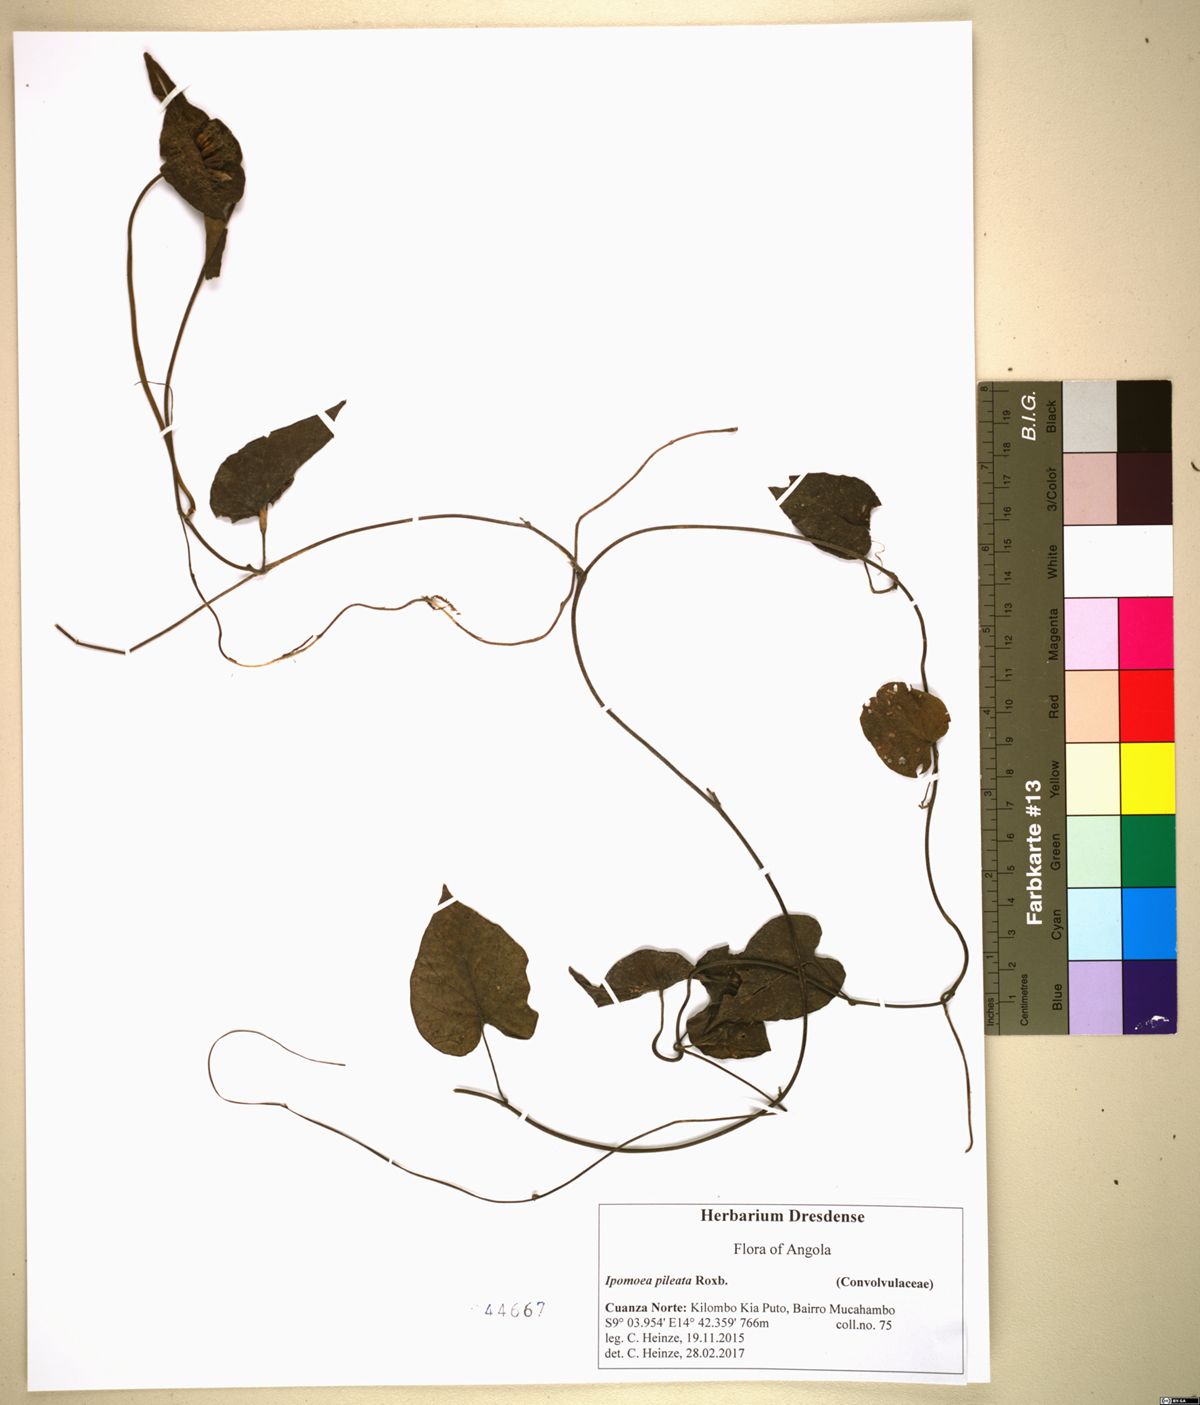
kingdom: Plantae
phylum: Tracheophyta
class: Magnoliopsida
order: Solanales
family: Convolvulaceae
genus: Ipomoea
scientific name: Ipomoea pileata
